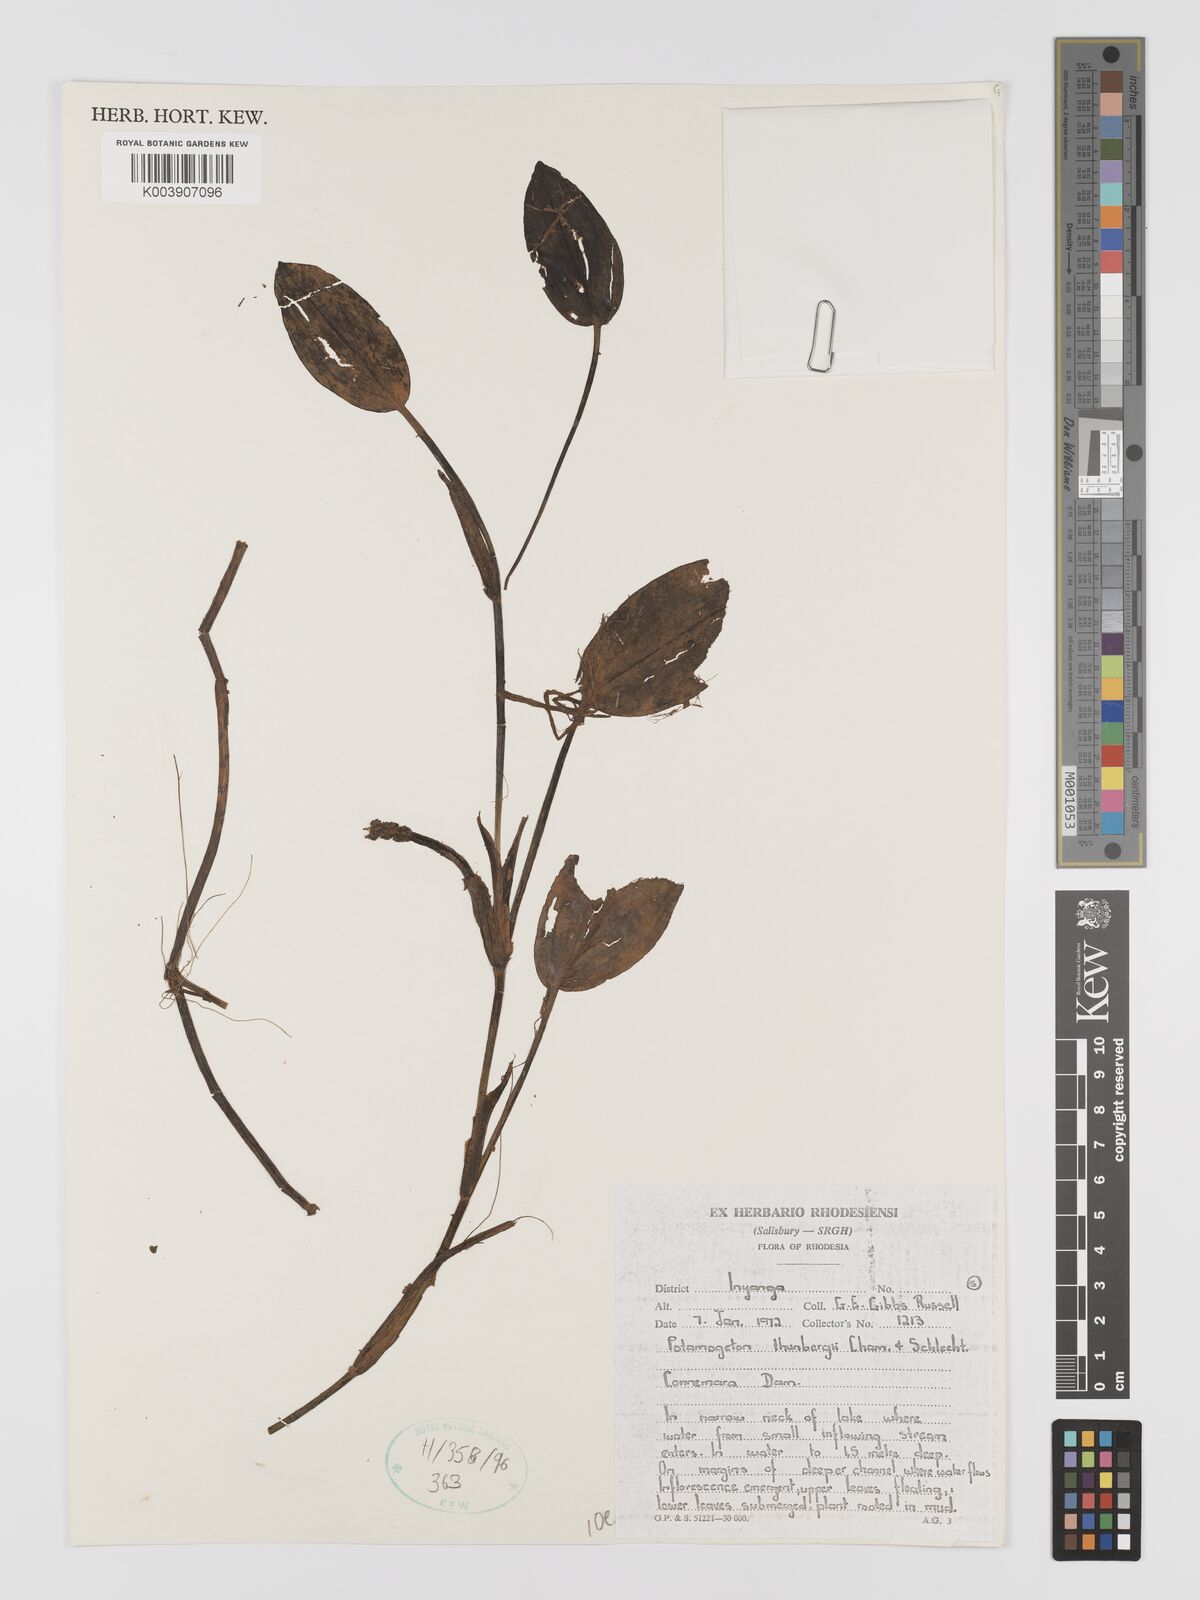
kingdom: Plantae
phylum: Tracheophyta
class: Liliopsida
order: Alismatales
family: Potamogetonaceae
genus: Potamogeton
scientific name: Potamogeton nodosus
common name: Loddon pondweed
